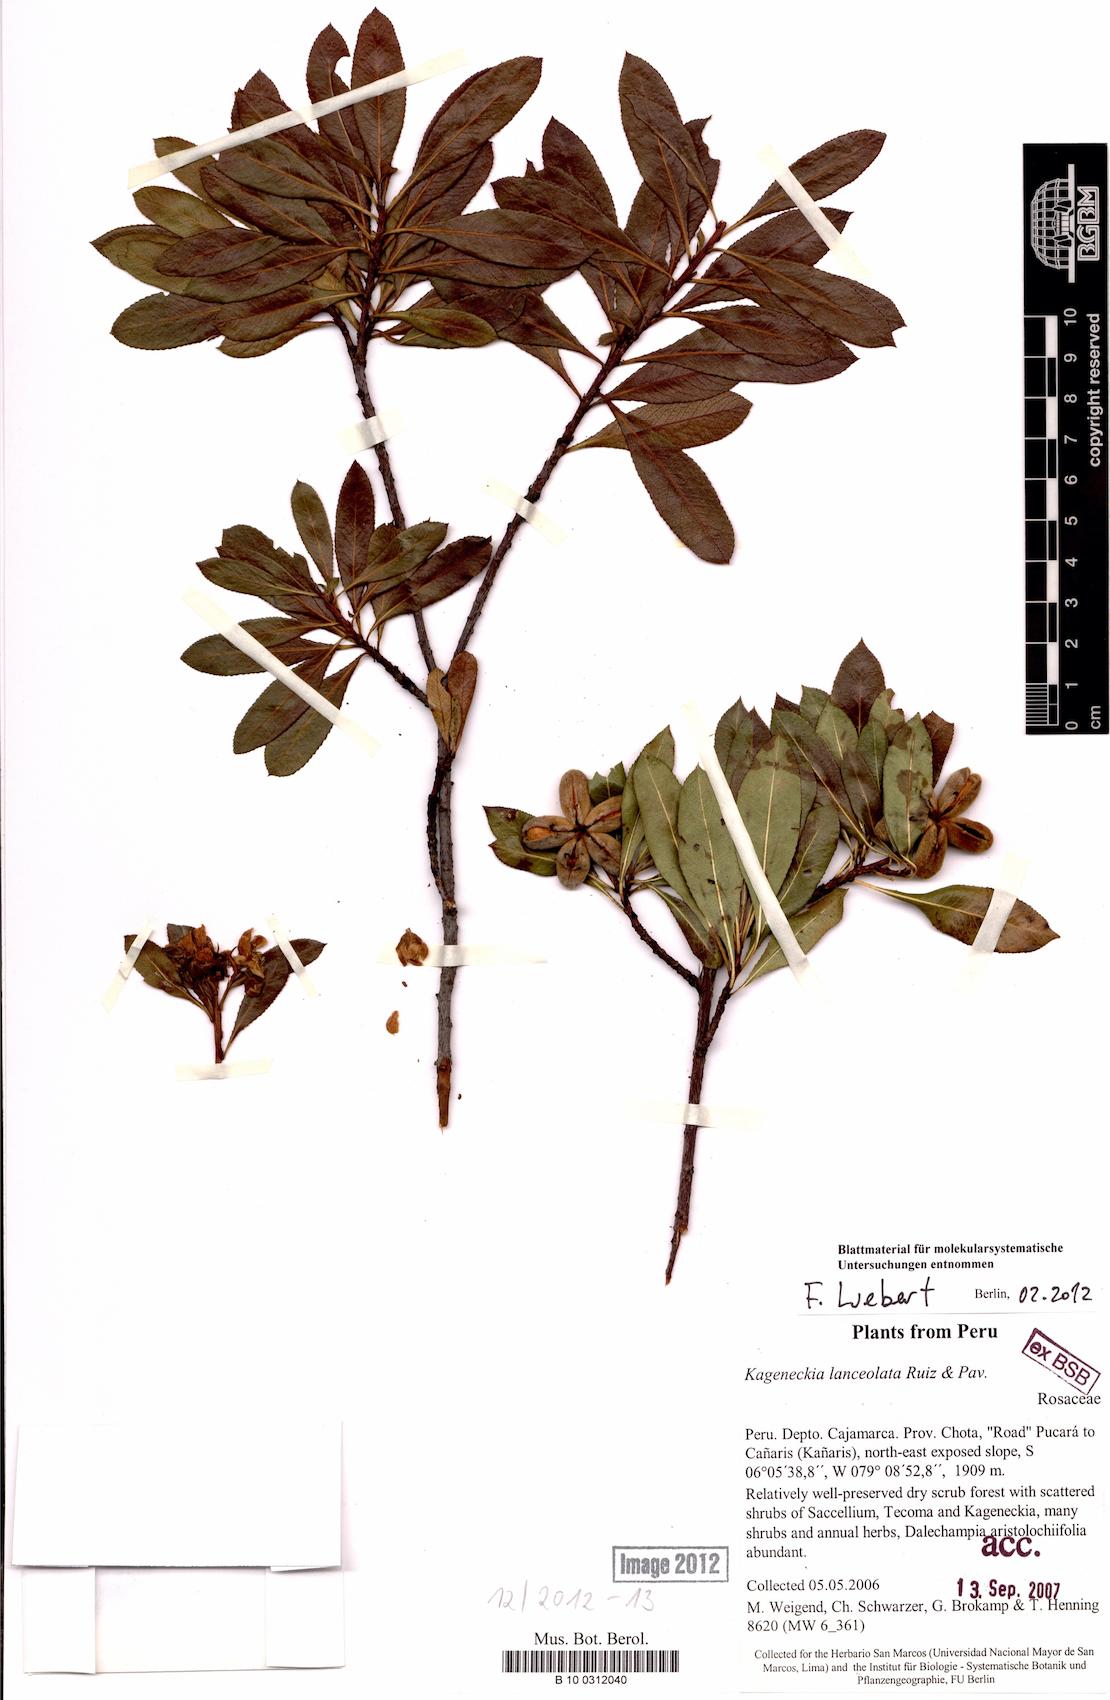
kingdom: Plantae
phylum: Tracheophyta
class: Magnoliopsida
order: Rosales
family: Rosaceae
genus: Kageneckia
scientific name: Kageneckia lanceolata
